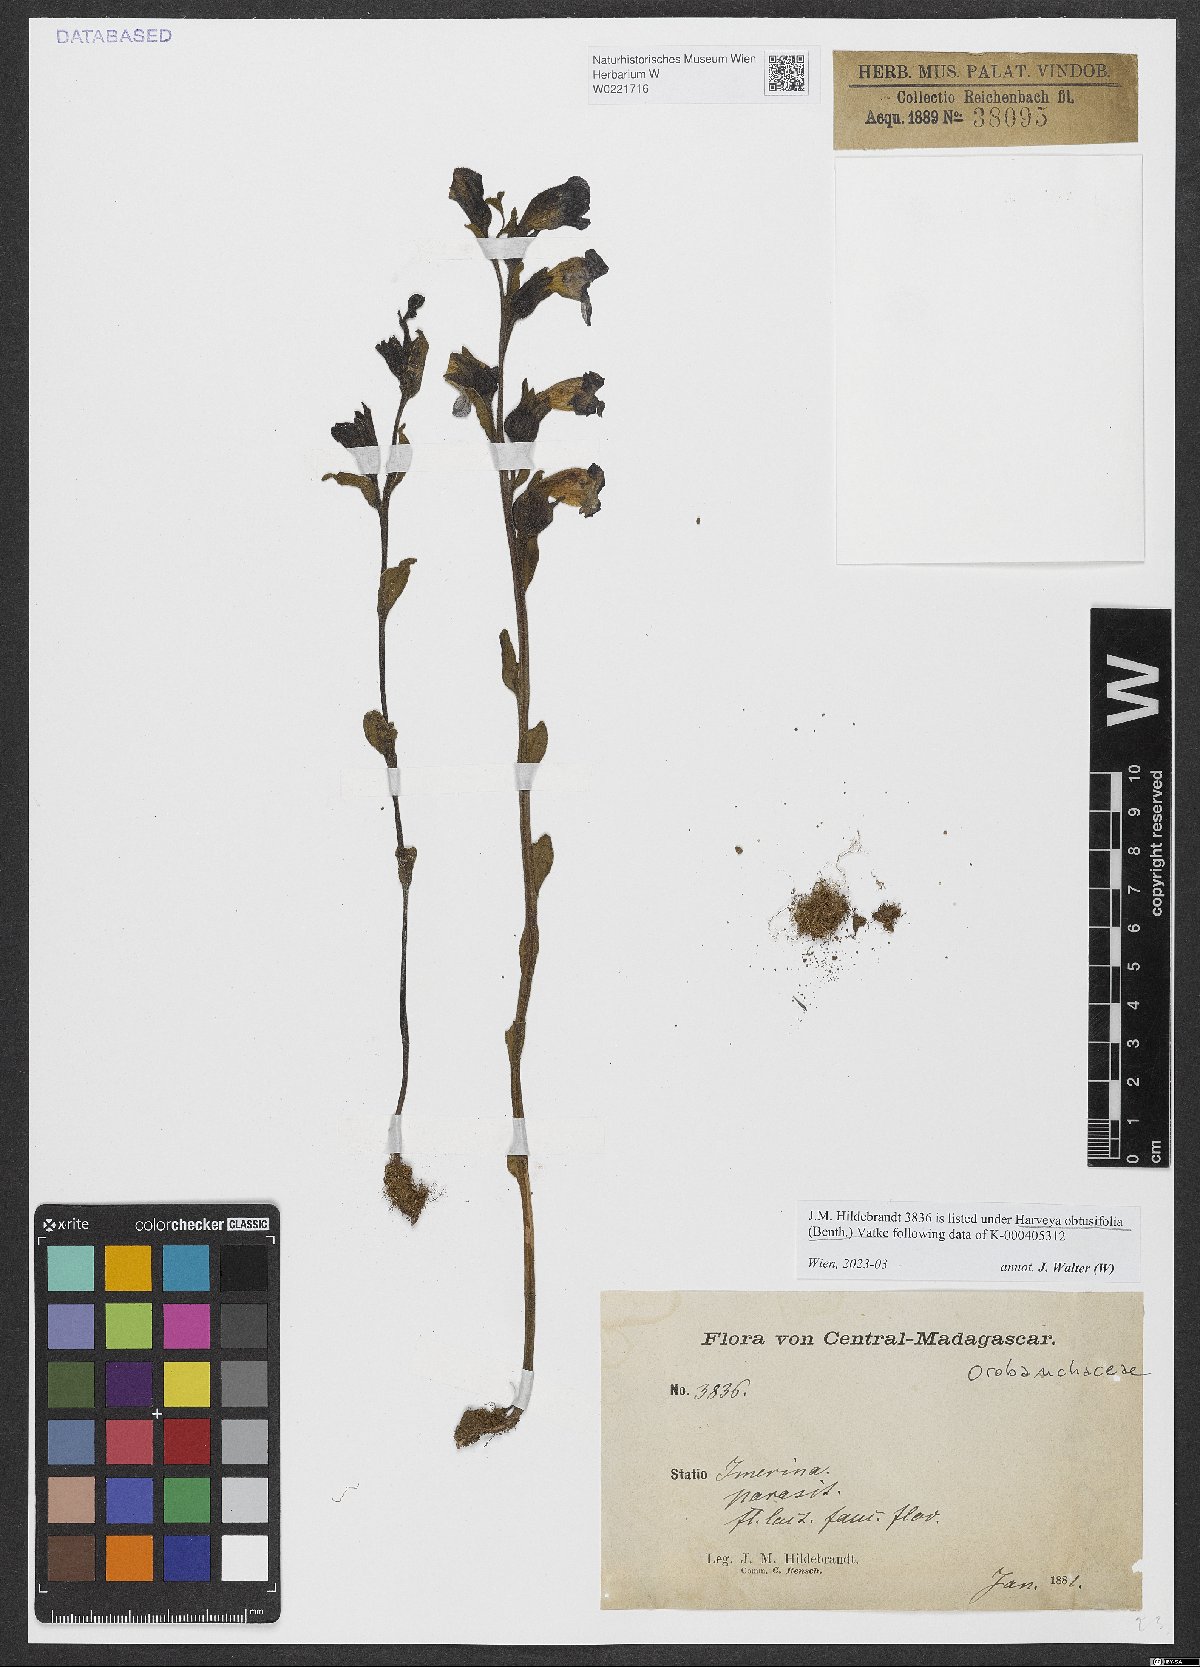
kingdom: Plantae
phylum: Tracheophyta
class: Magnoliopsida
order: Lamiales
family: Orobanchaceae
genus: Harveya
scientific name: Harveya obtusifolia
